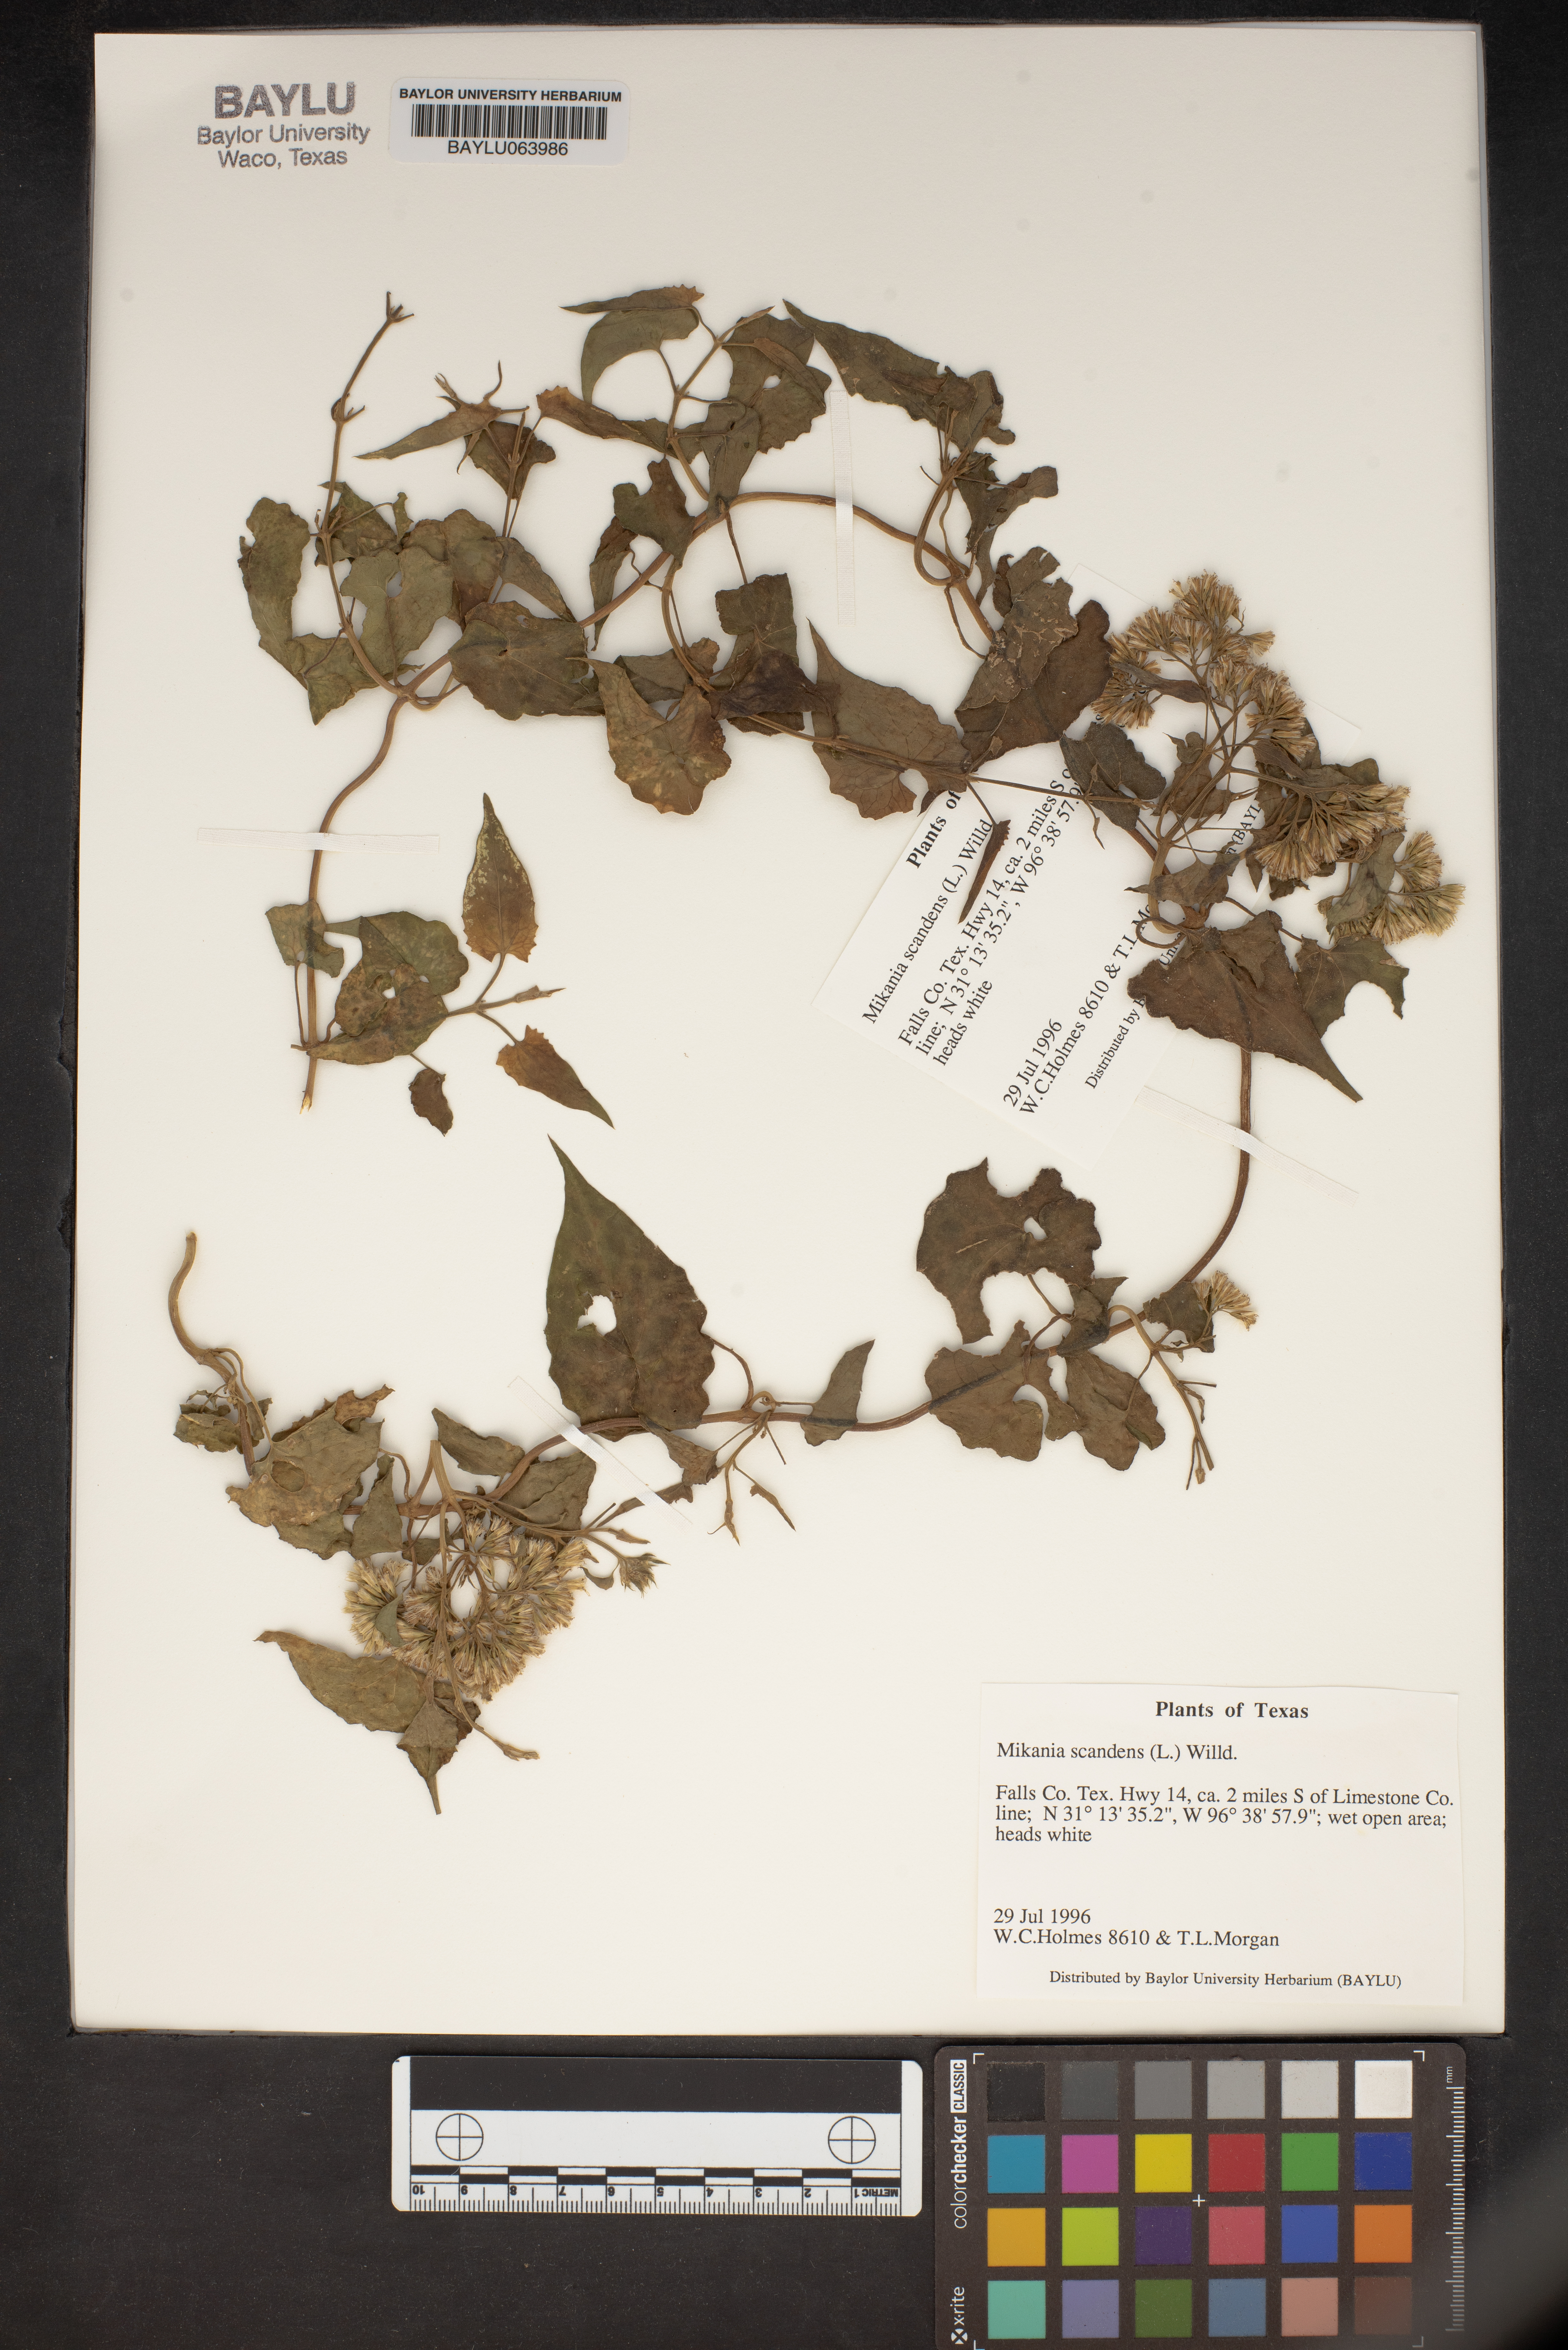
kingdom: Plantae
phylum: Tracheophyta
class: Magnoliopsida
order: Asterales
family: Asteraceae
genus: Mikania
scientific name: Mikania scandens
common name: Climbing hempvine
